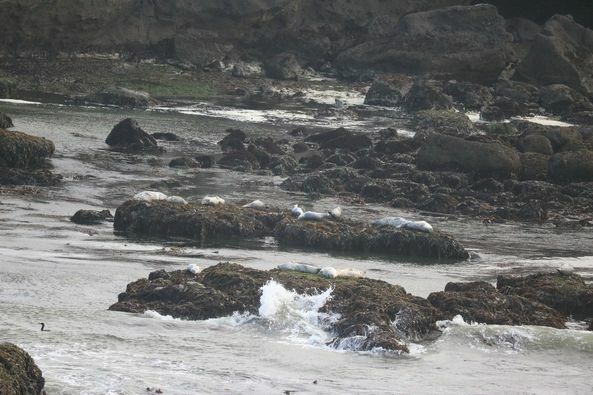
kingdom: Animalia
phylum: Chordata
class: Mammalia
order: Carnivora
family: Phocidae
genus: Phoca
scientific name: Phoca vitulina
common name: Harbor seal
